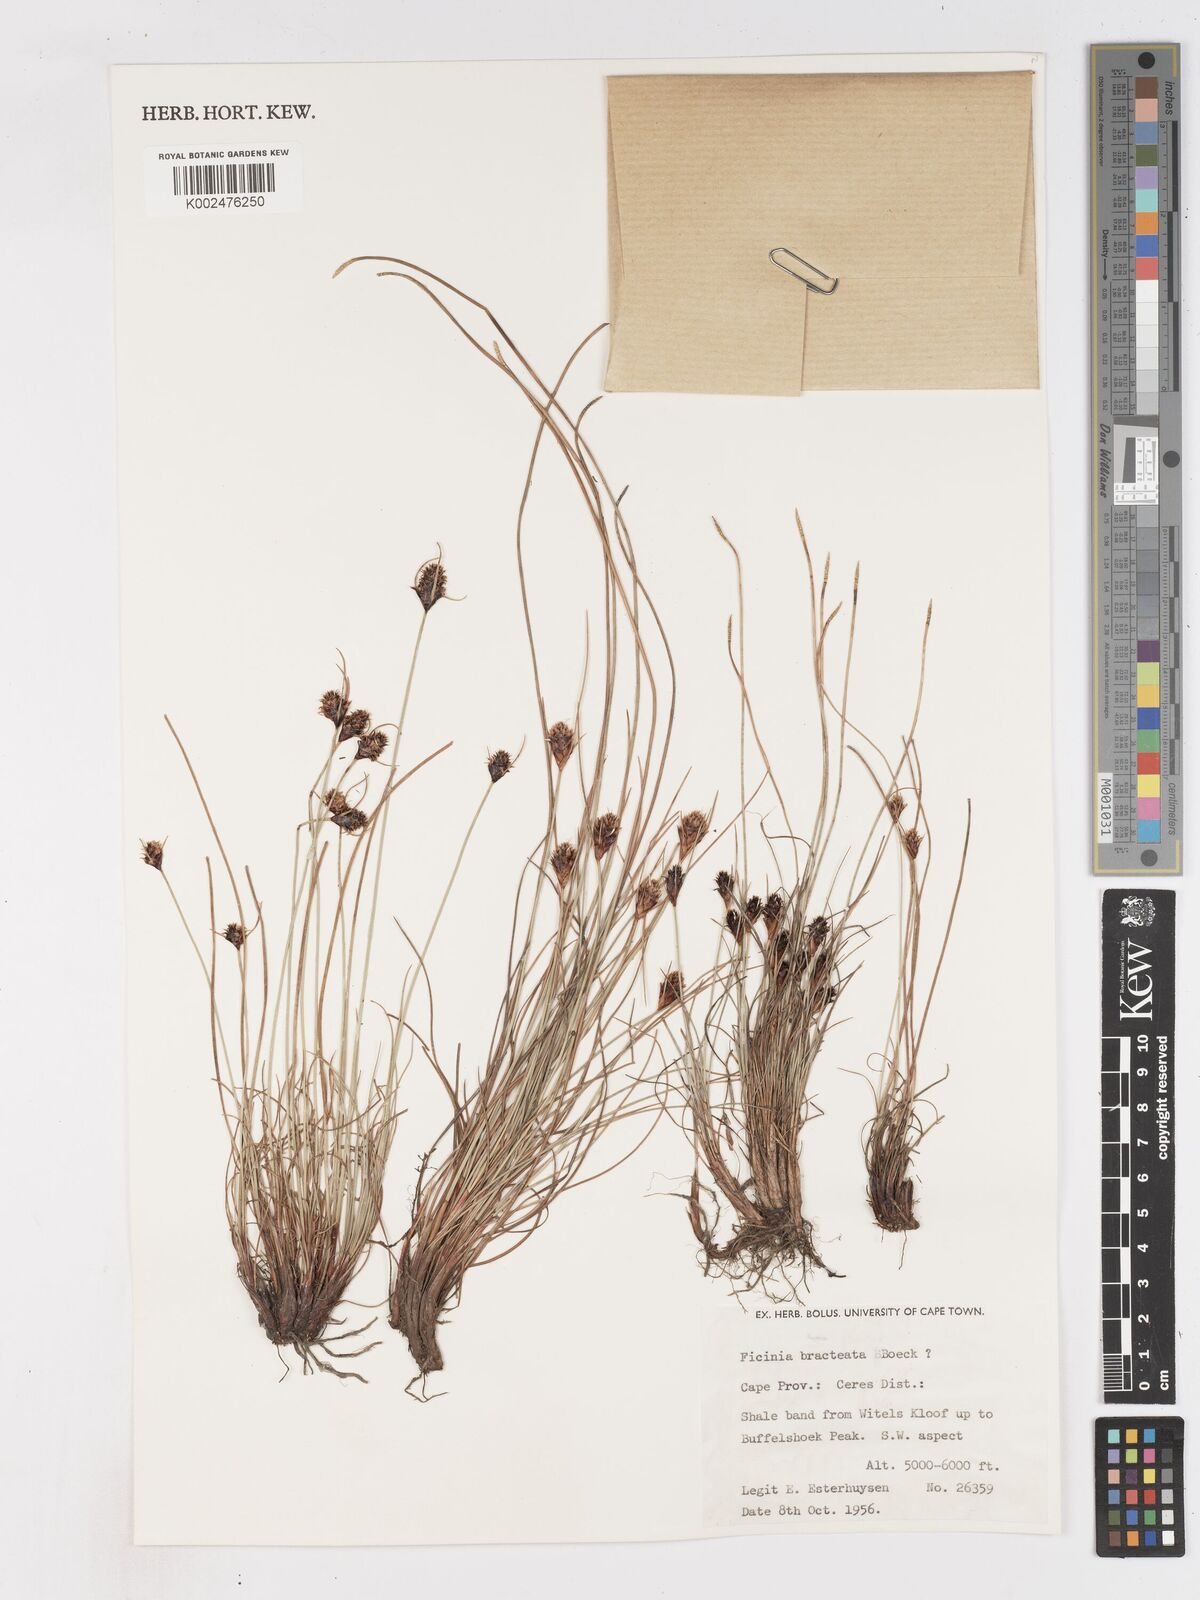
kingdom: Plantae
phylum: Tracheophyta
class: Liliopsida
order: Poales
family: Cyperaceae
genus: Ficinia
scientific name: Ficinia nigrescens
